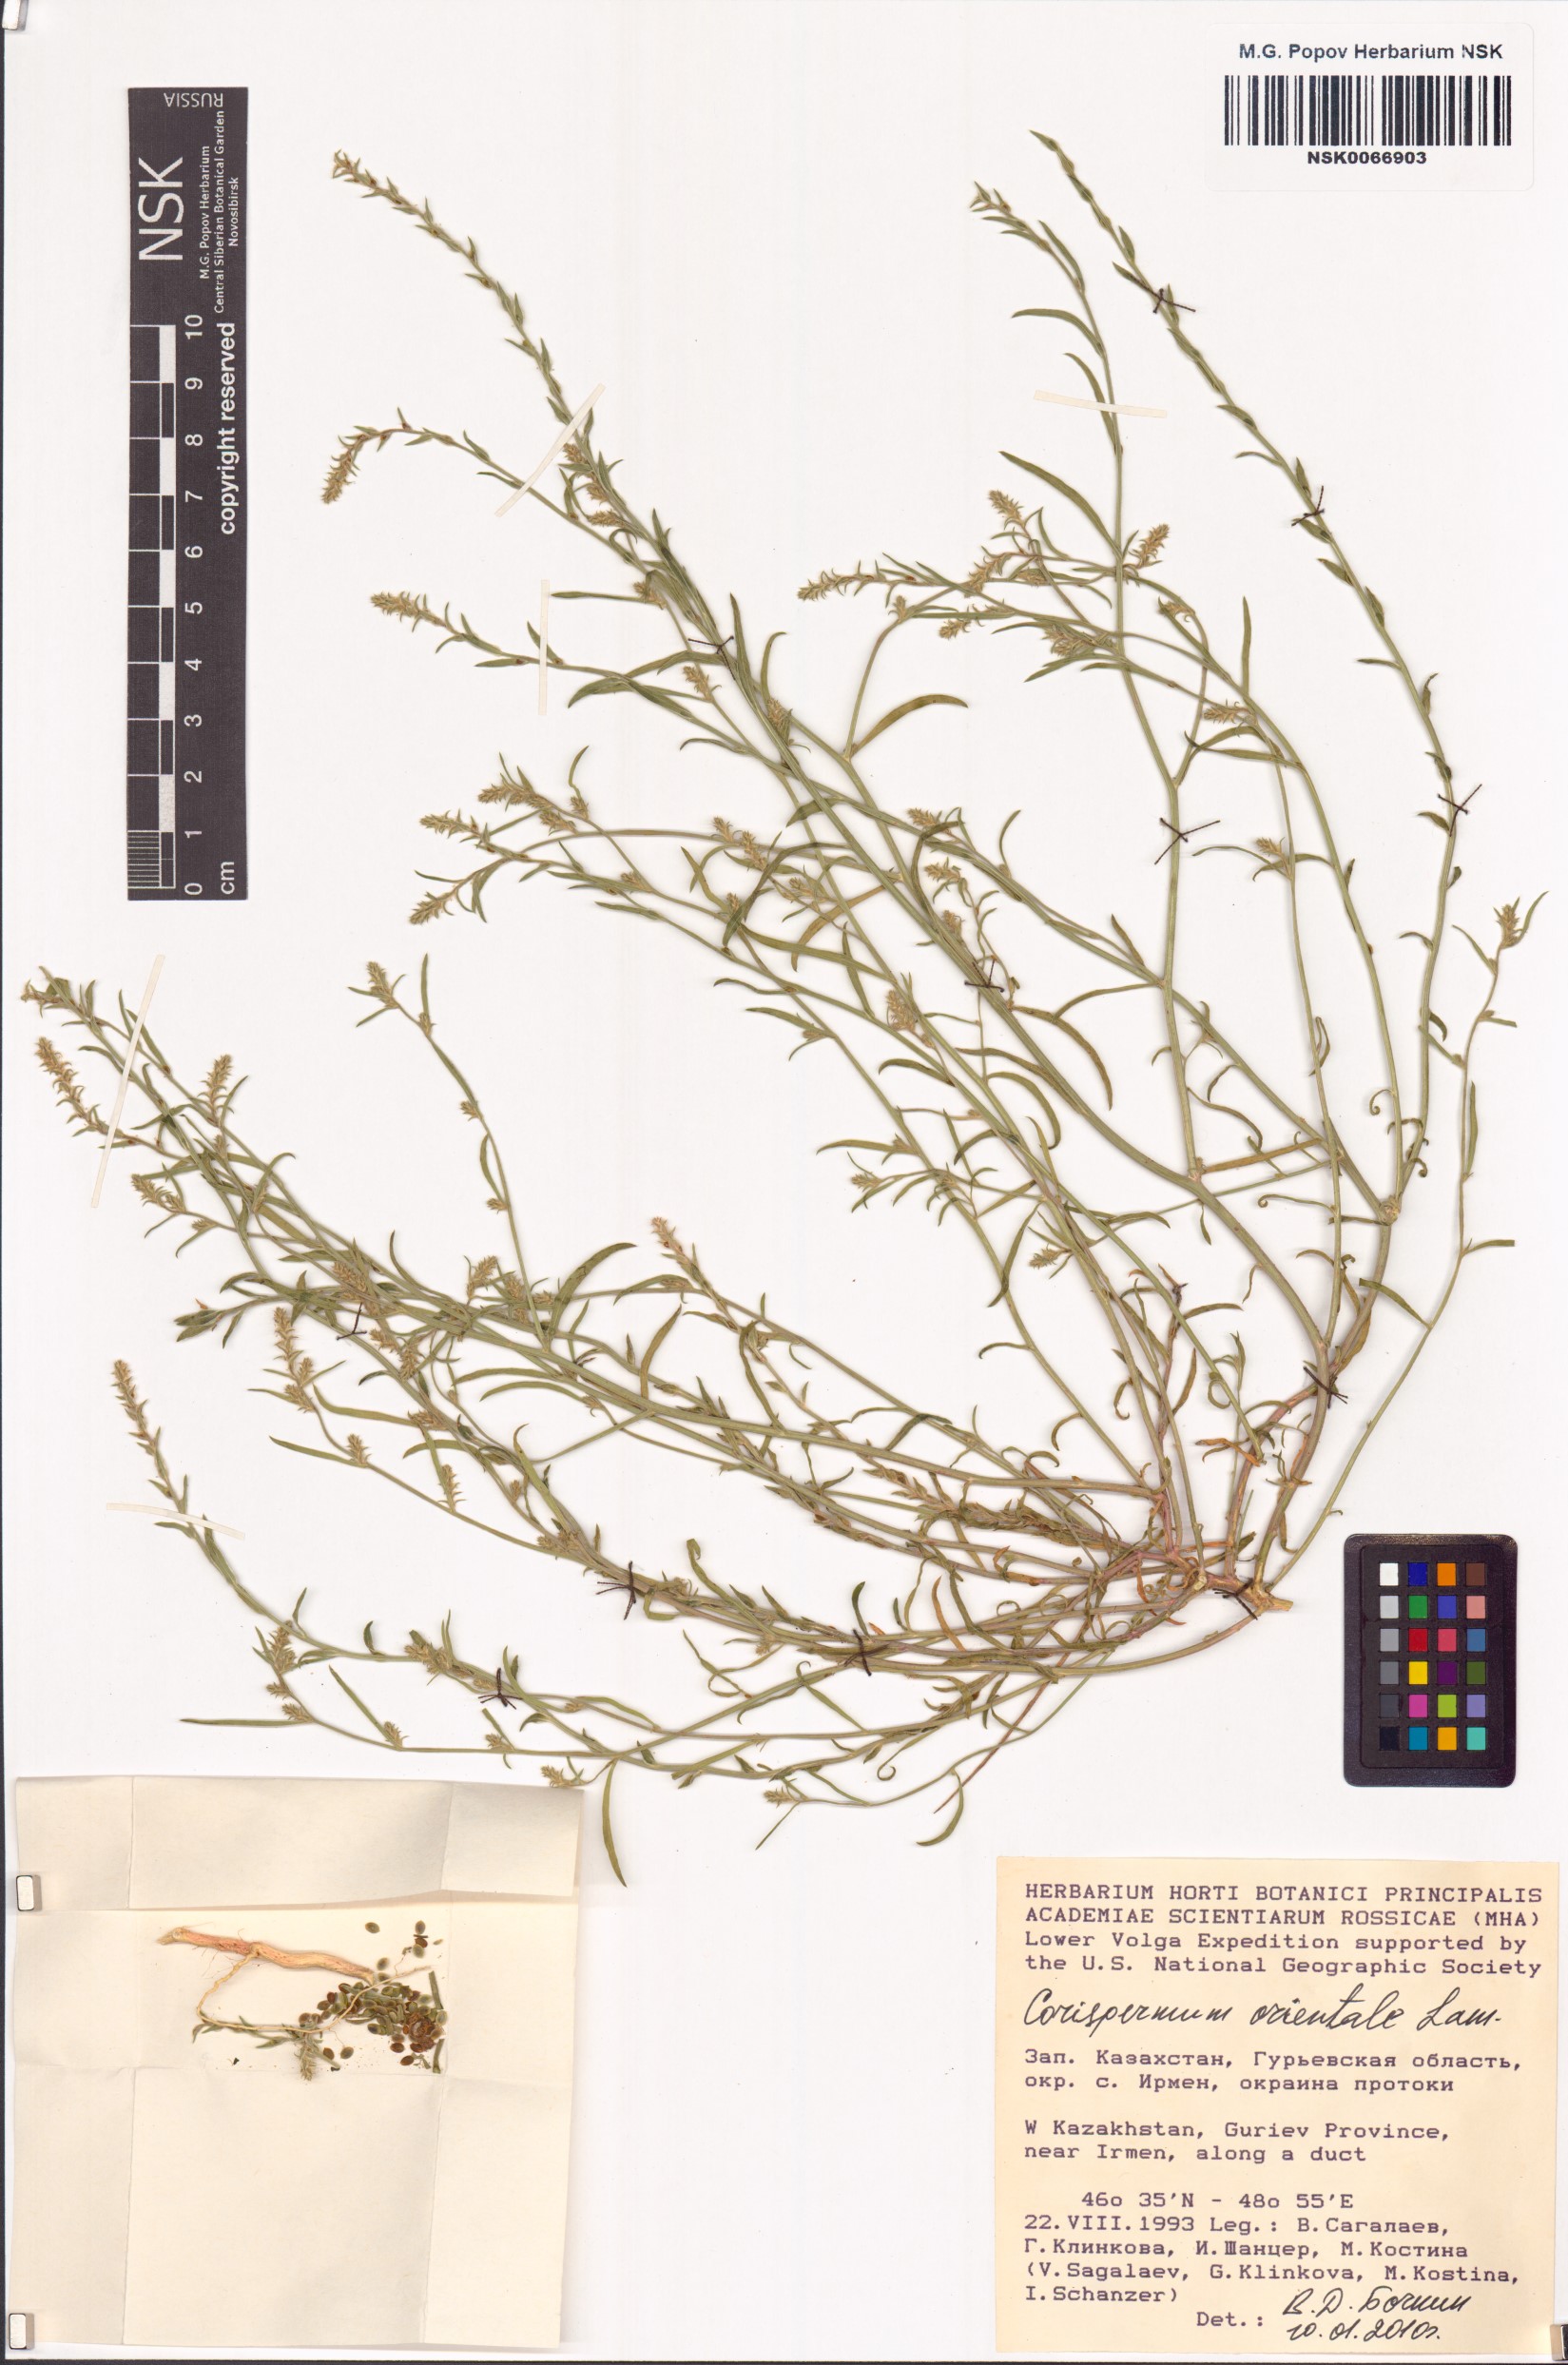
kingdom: Plantae
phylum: Tracheophyta
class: Magnoliopsida
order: Caryophyllales
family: Amaranthaceae
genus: Corispermum
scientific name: Corispermum aralocaspicum
